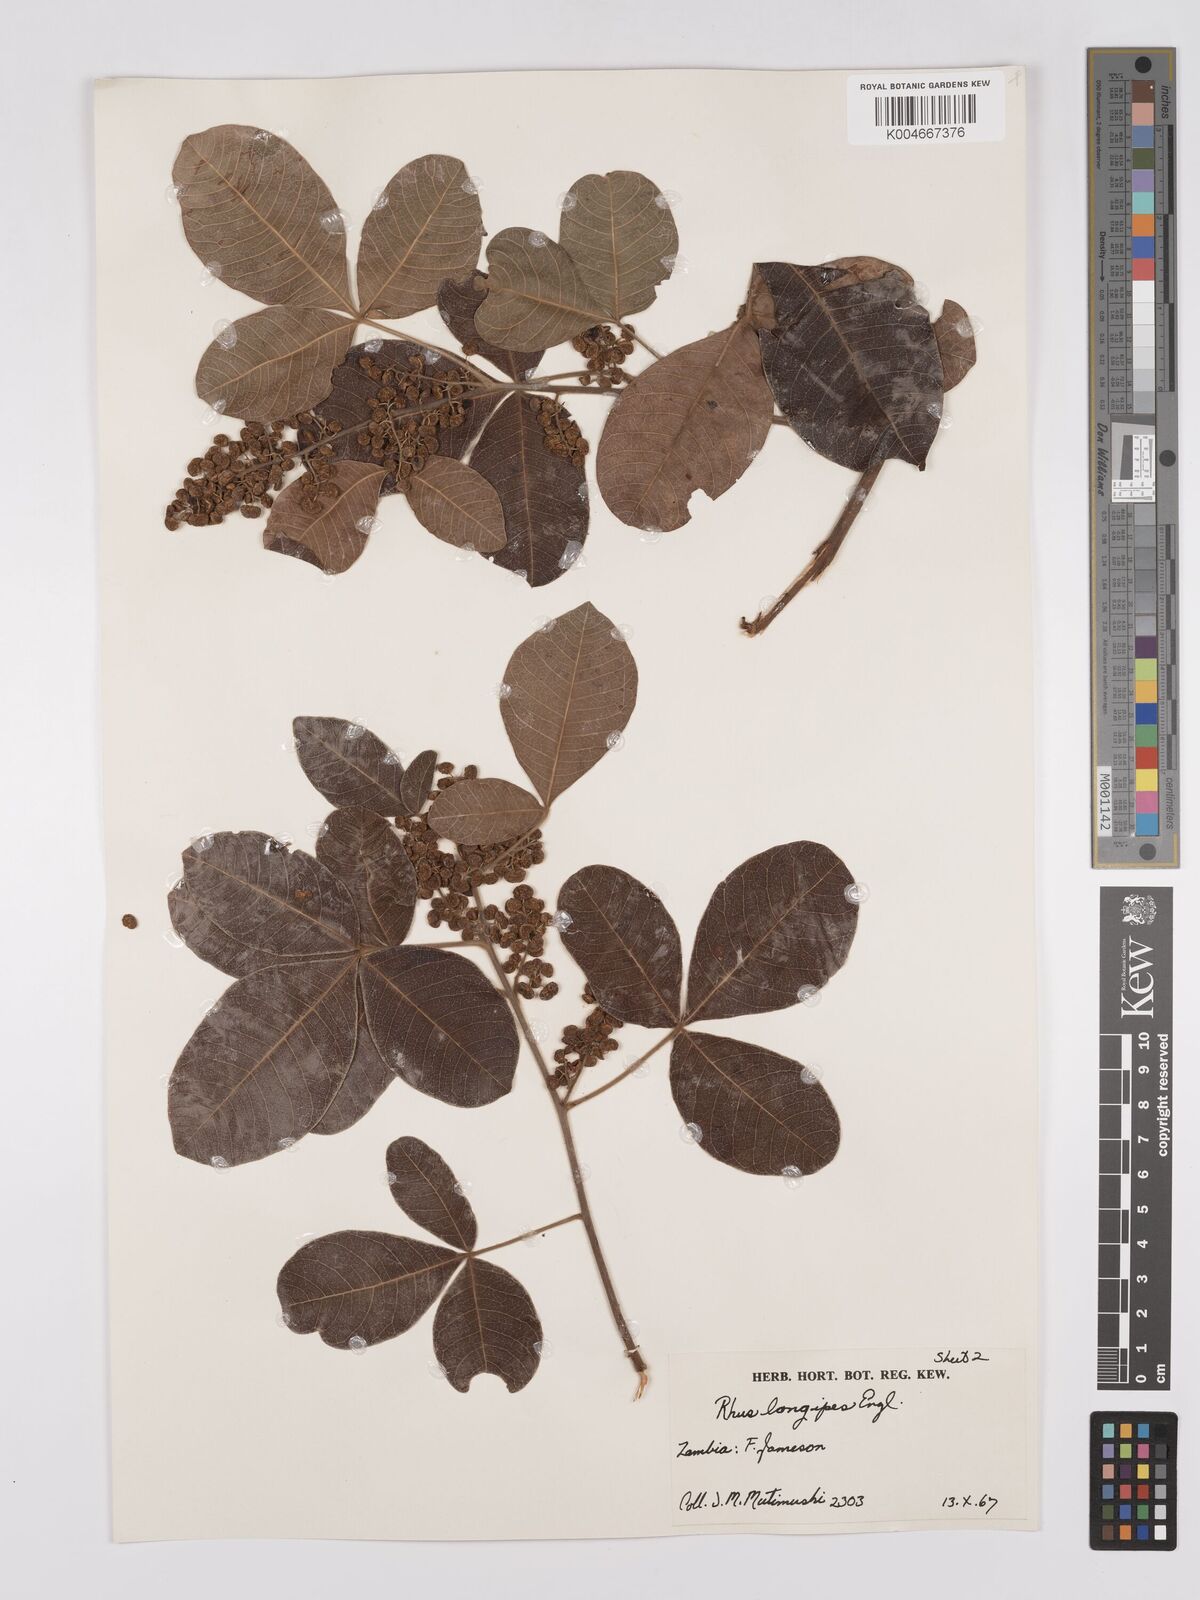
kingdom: Plantae
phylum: Tracheophyta
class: Magnoliopsida
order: Sapindales
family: Anacardiaceae
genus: Searsia
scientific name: Searsia longipes
